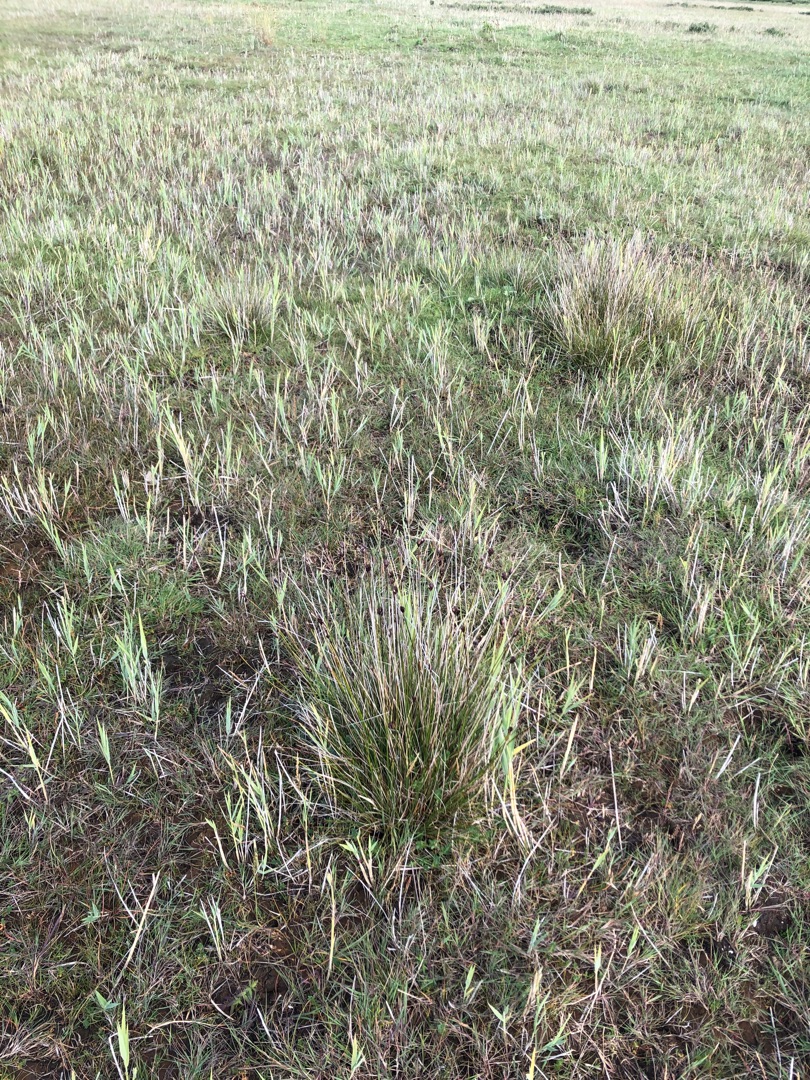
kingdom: Plantae
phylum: Tracheophyta
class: Liliopsida
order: Poales
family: Cyperaceae
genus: Schoenus
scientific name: Schoenus nigricans
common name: Sort skæne
